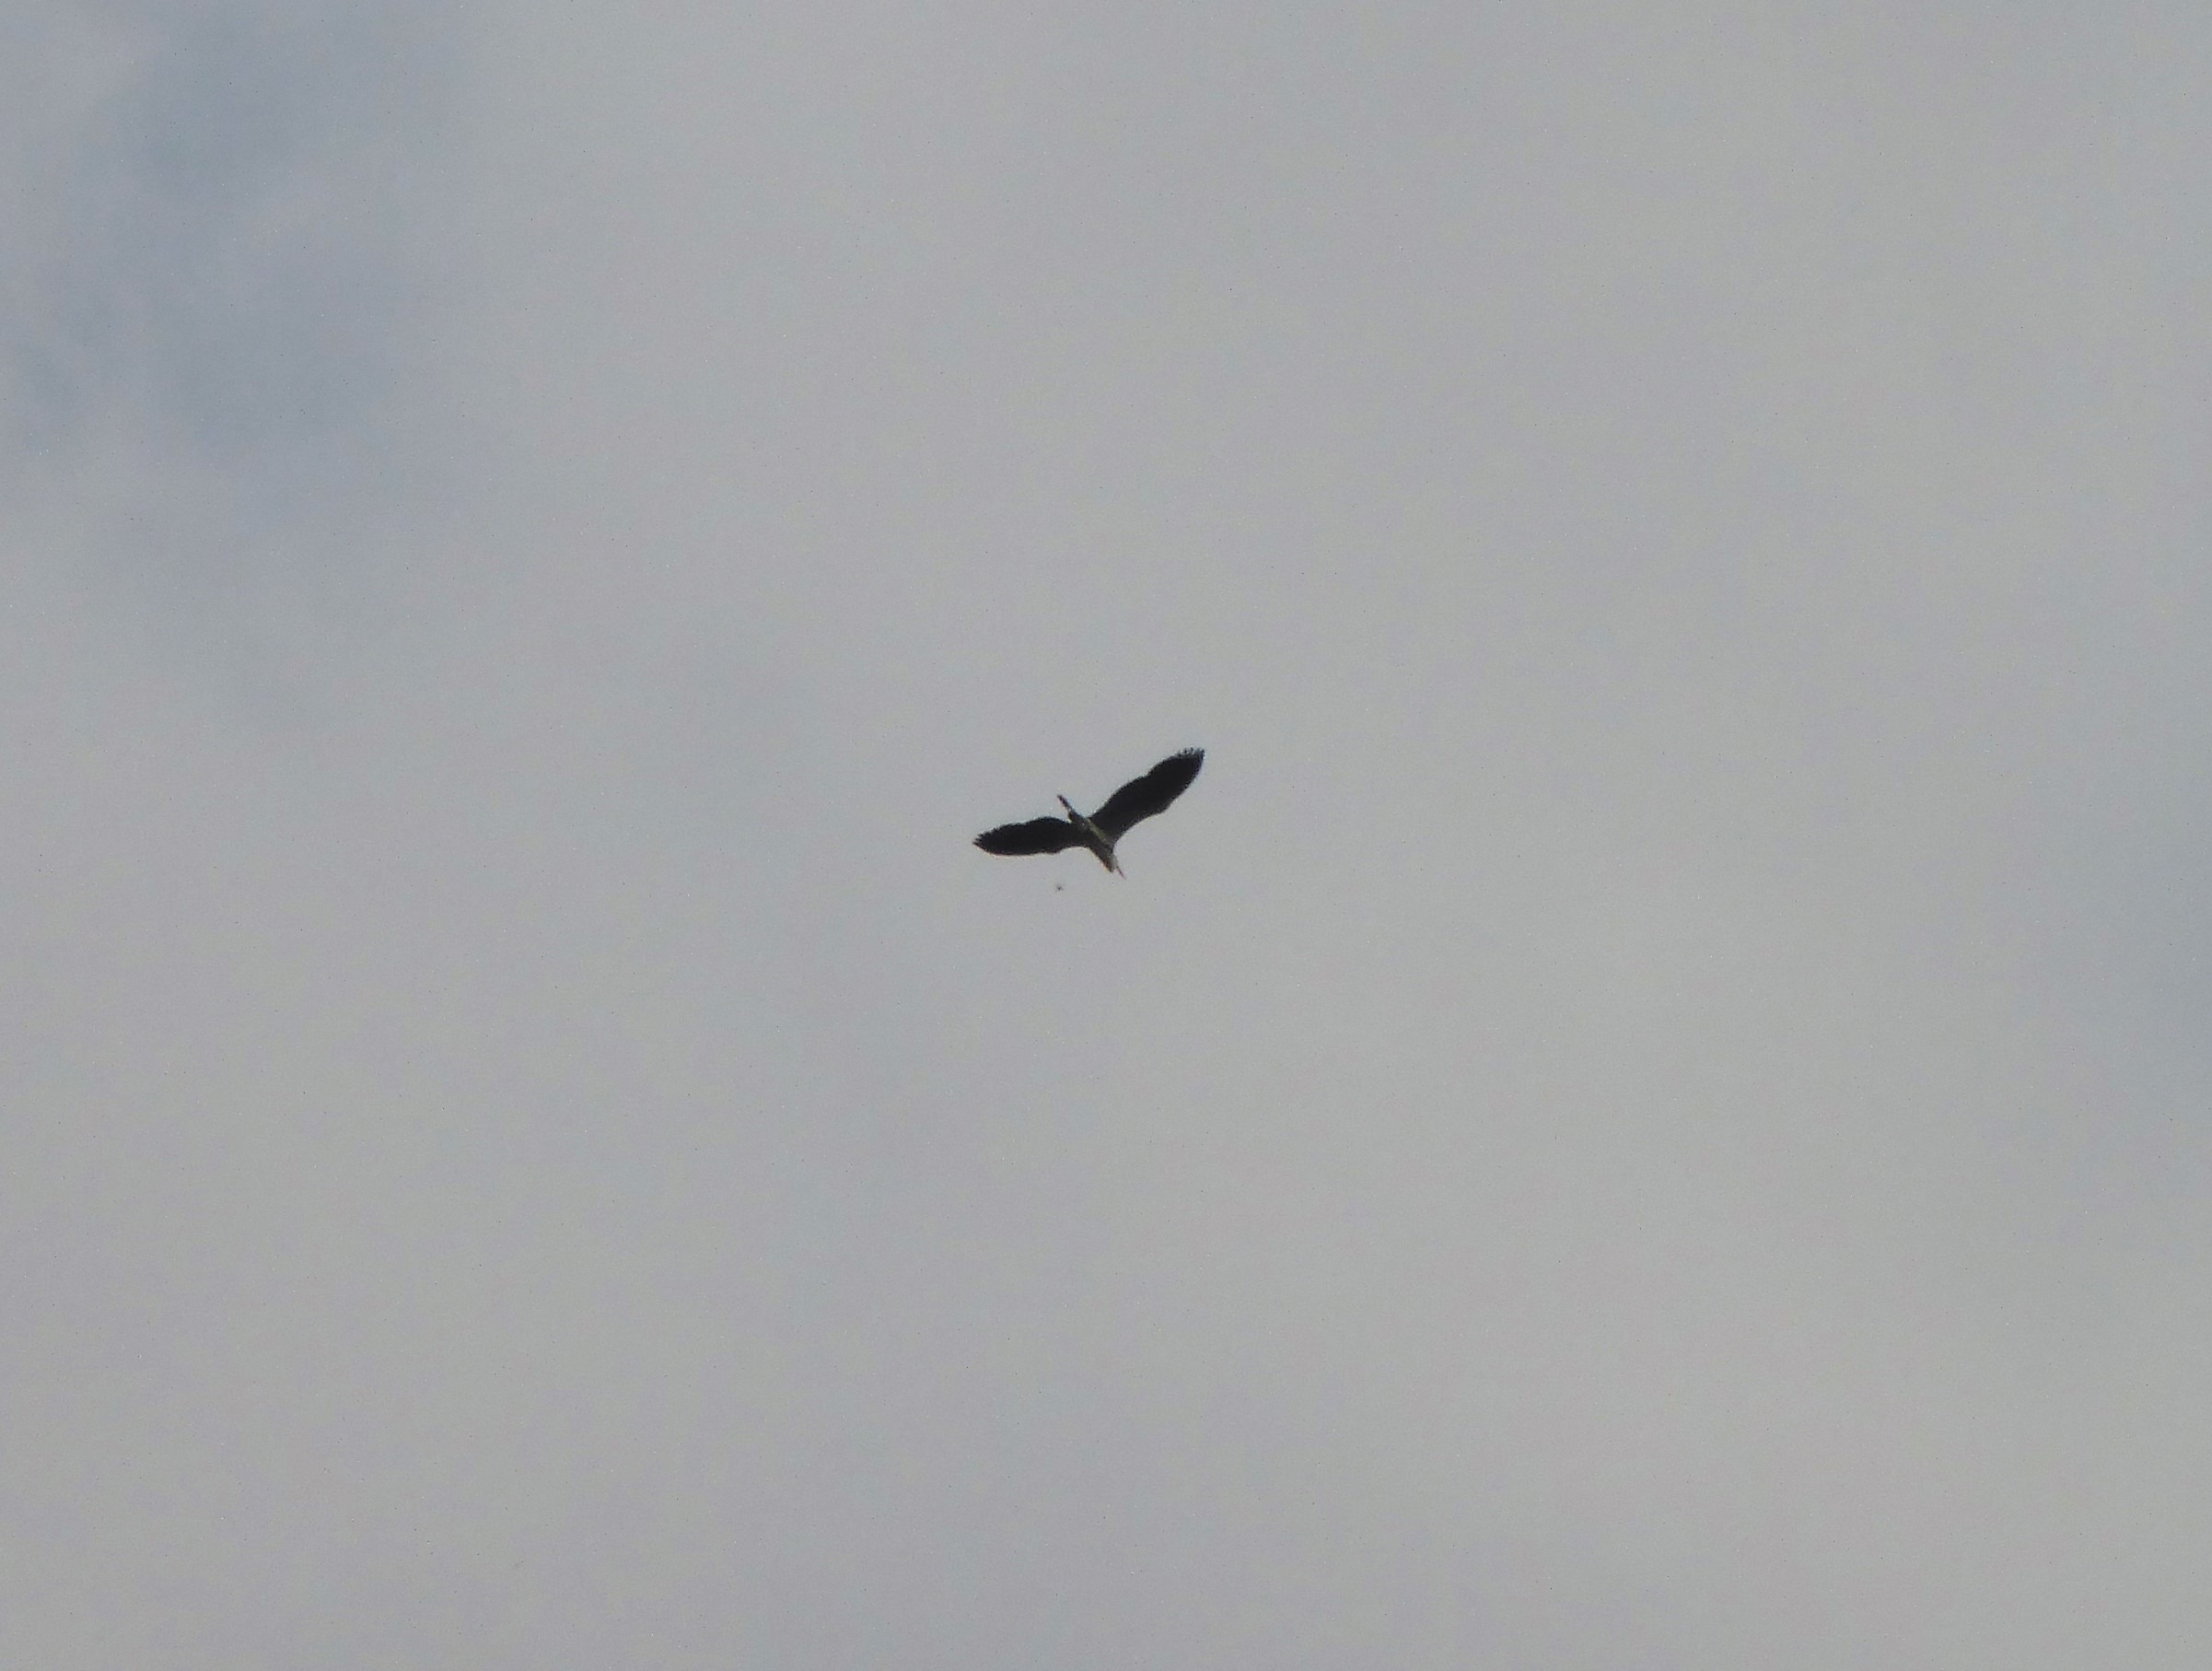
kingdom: Animalia
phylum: Chordata
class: Aves
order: Pelecaniformes
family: Ardeidae
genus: Ardea
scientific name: Ardea cinerea
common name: Fiskehejre
